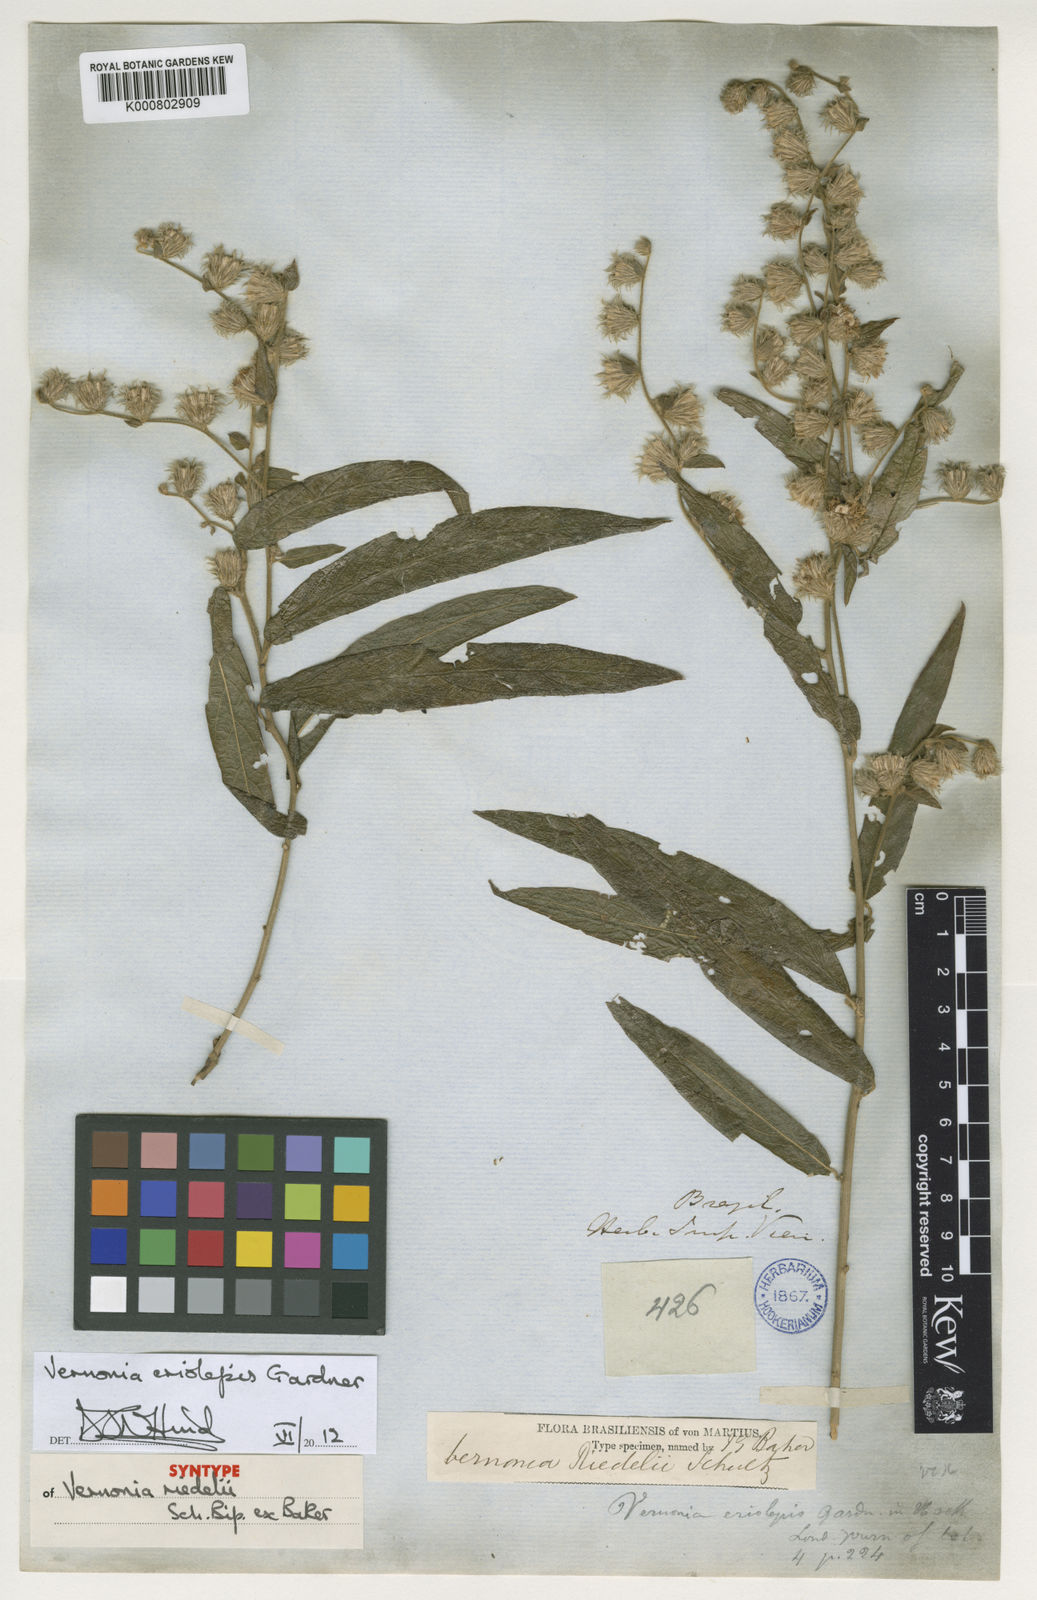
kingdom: Plantae
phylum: Tracheophyta
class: Magnoliopsida
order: Asterales
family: Asteraceae
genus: Lepidaploa
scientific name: Lepidaploa eriolepis
